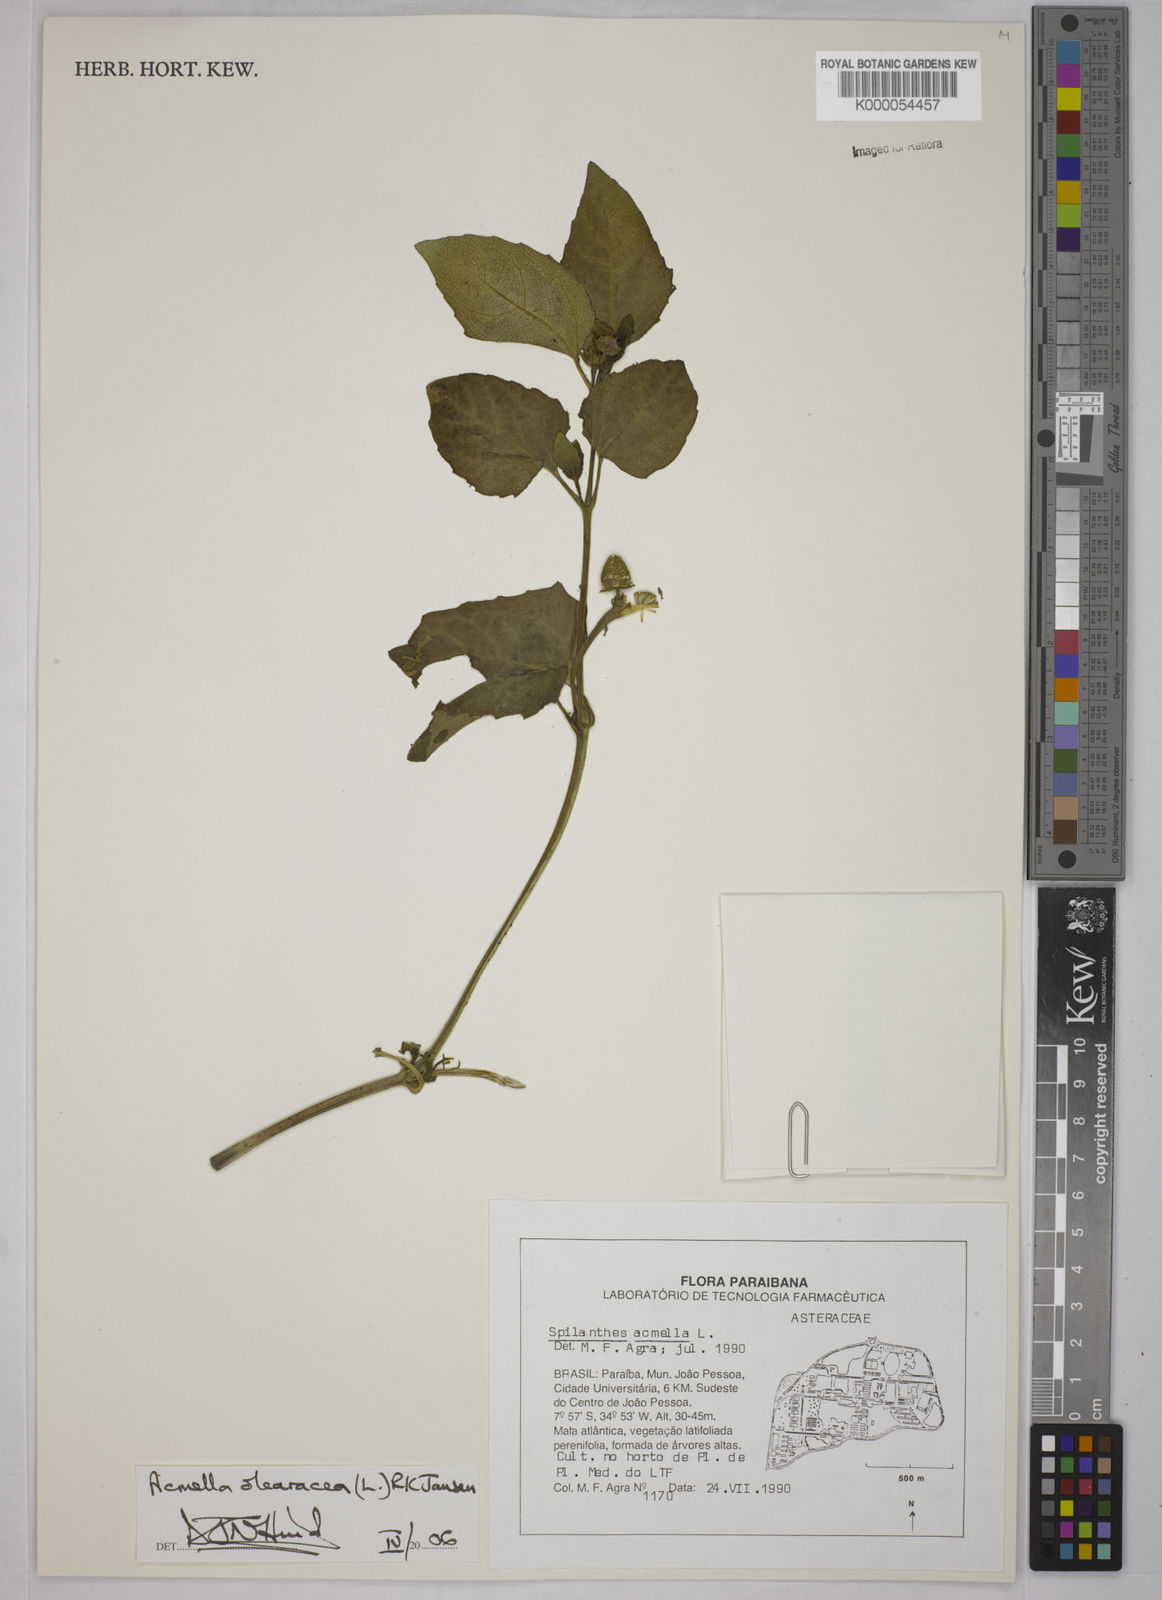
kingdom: Plantae
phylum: Tracheophyta
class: Magnoliopsida
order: Asterales
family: Asteraceae
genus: Acmella
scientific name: Acmella oleracea
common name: Brazilian cress
